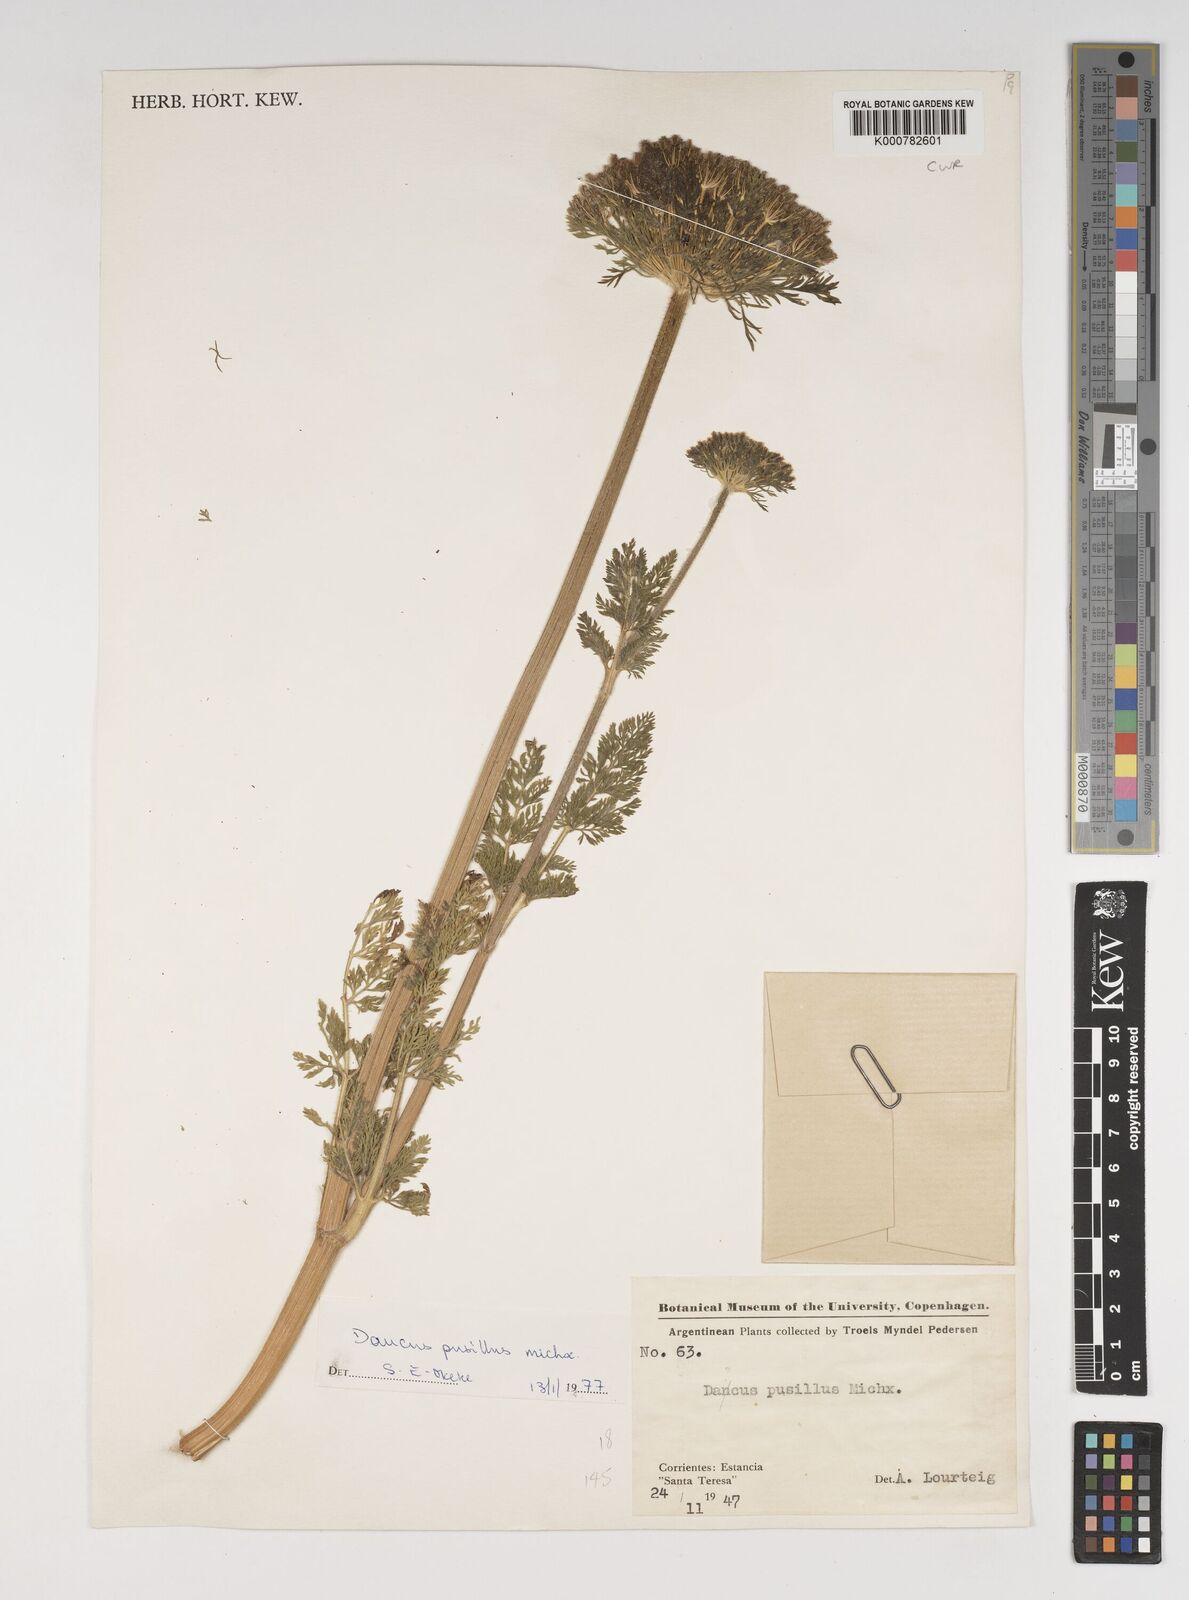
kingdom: Plantae
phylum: Tracheophyta
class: Magnoliopsida
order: Apiales
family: Apiaceae
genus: Daucus
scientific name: Daucus pusillus
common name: Southwest wild carrot
